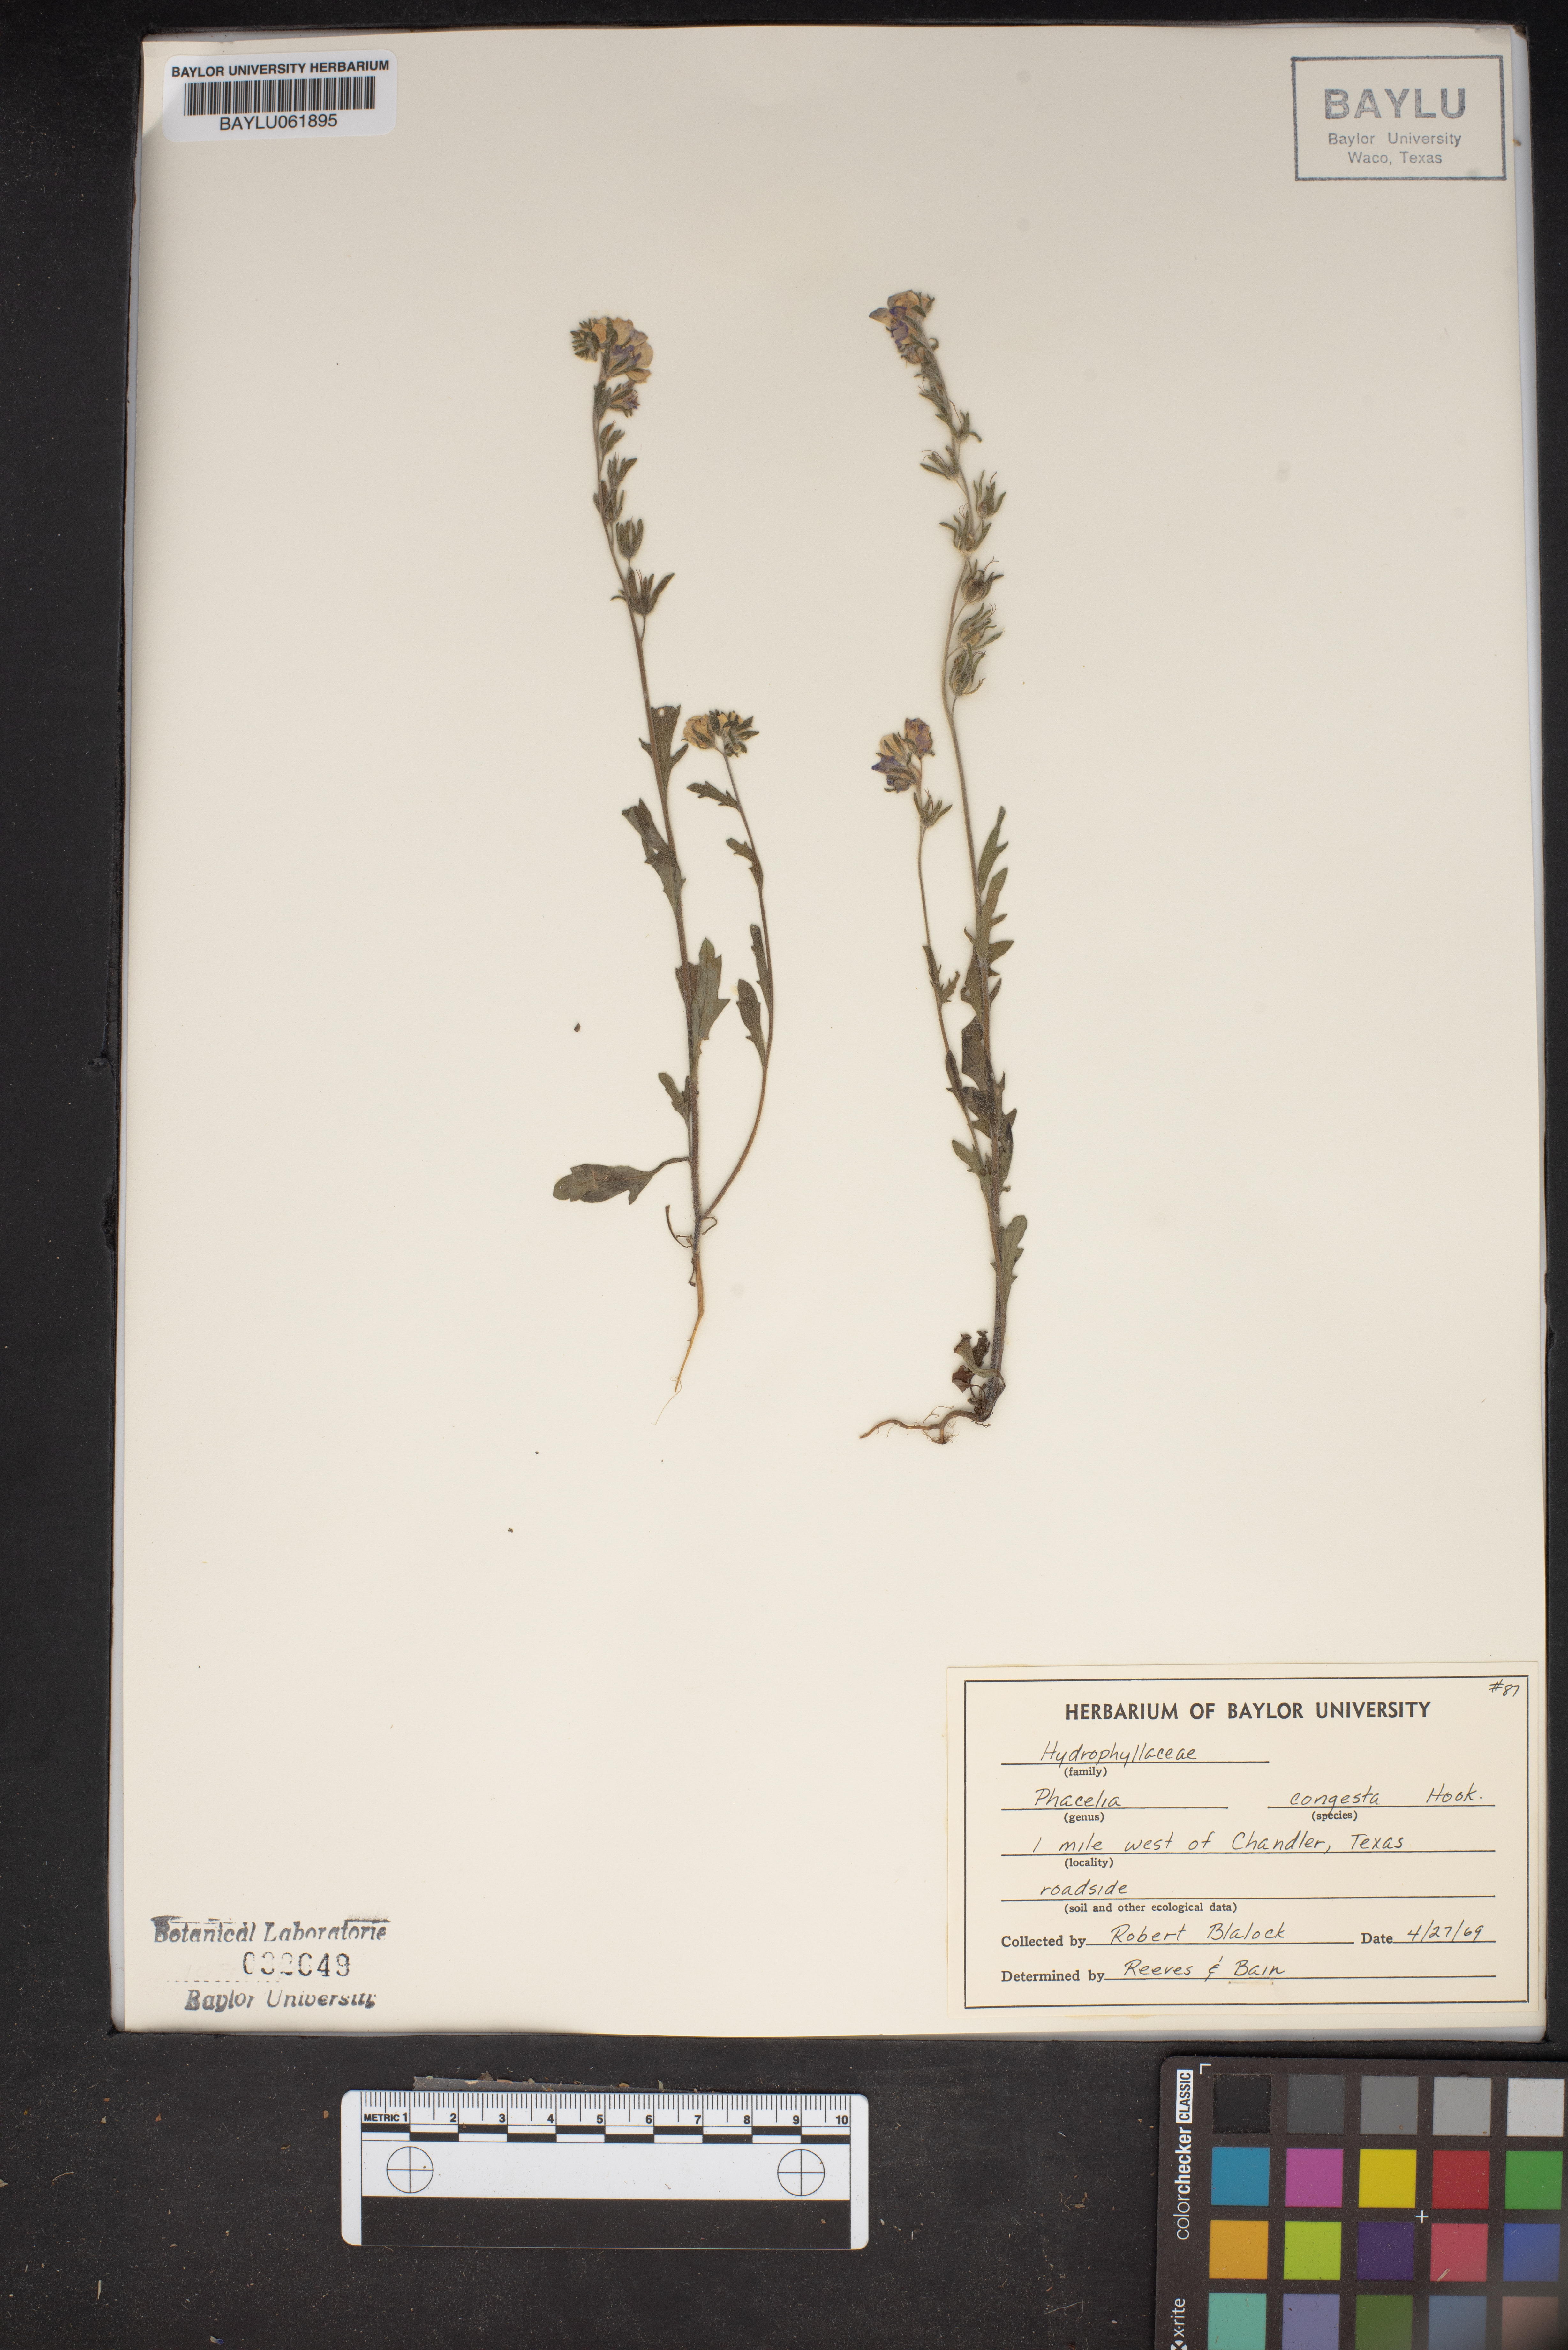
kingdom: Plantae
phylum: Tracheophyta
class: Magnoliopsida
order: Boraginales
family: Hydrophyllaceae
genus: Phacelia
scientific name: Phacelia congesta
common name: Blue curls
